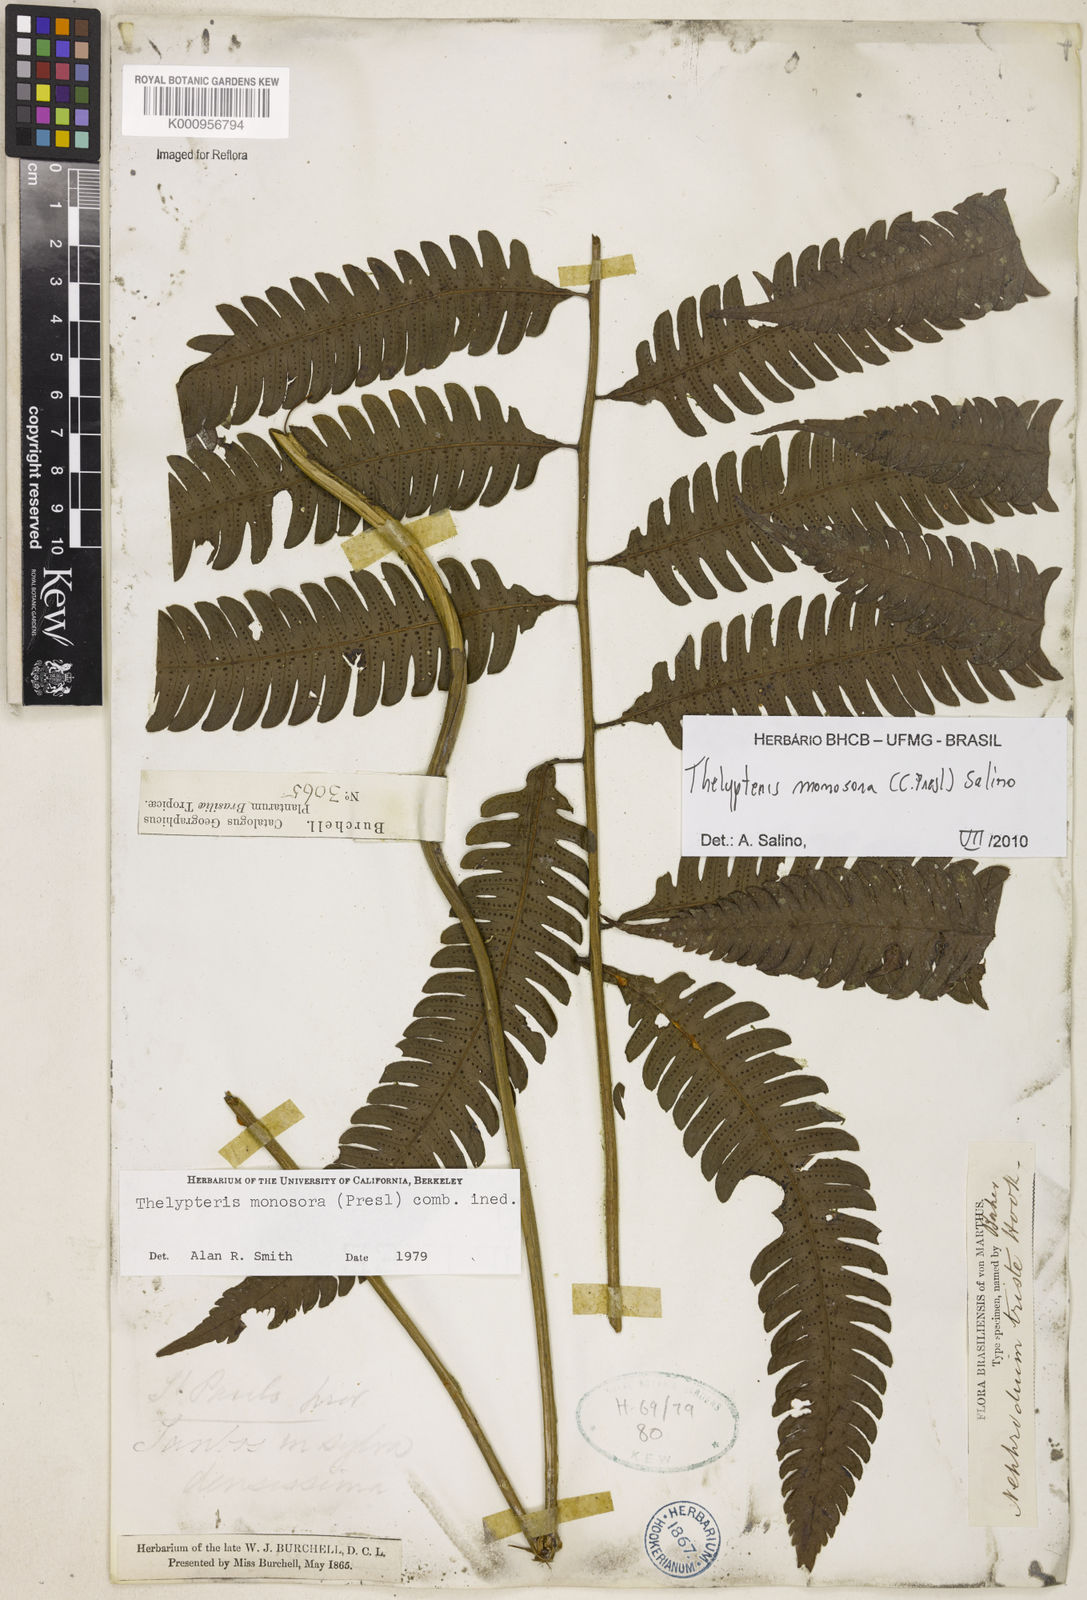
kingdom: Plantae
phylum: Tracheophyta
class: Polypodiopsida
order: Polypodiales
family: Thelypteridaceae
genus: Goniopteris
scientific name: Goniopteris monosora
